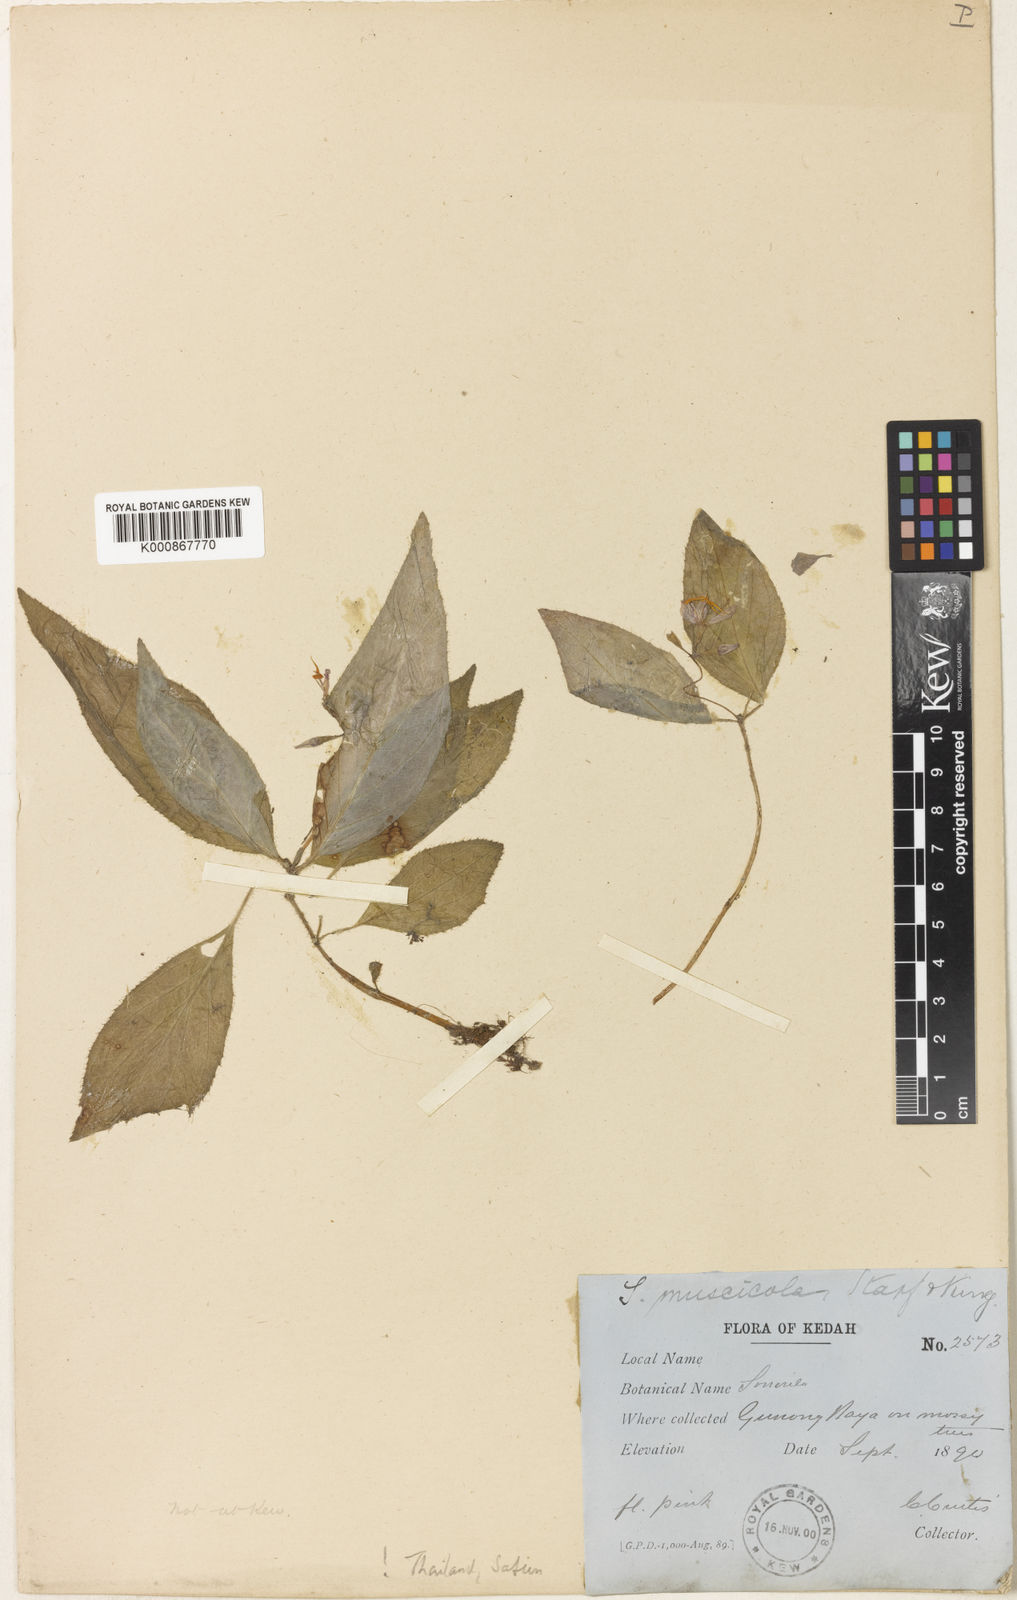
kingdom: Plantae
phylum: Tracheophyta
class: Magnoliopsida
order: Myrtales
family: Melastomataceae
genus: Sonerila
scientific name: Sonerila griffithii
